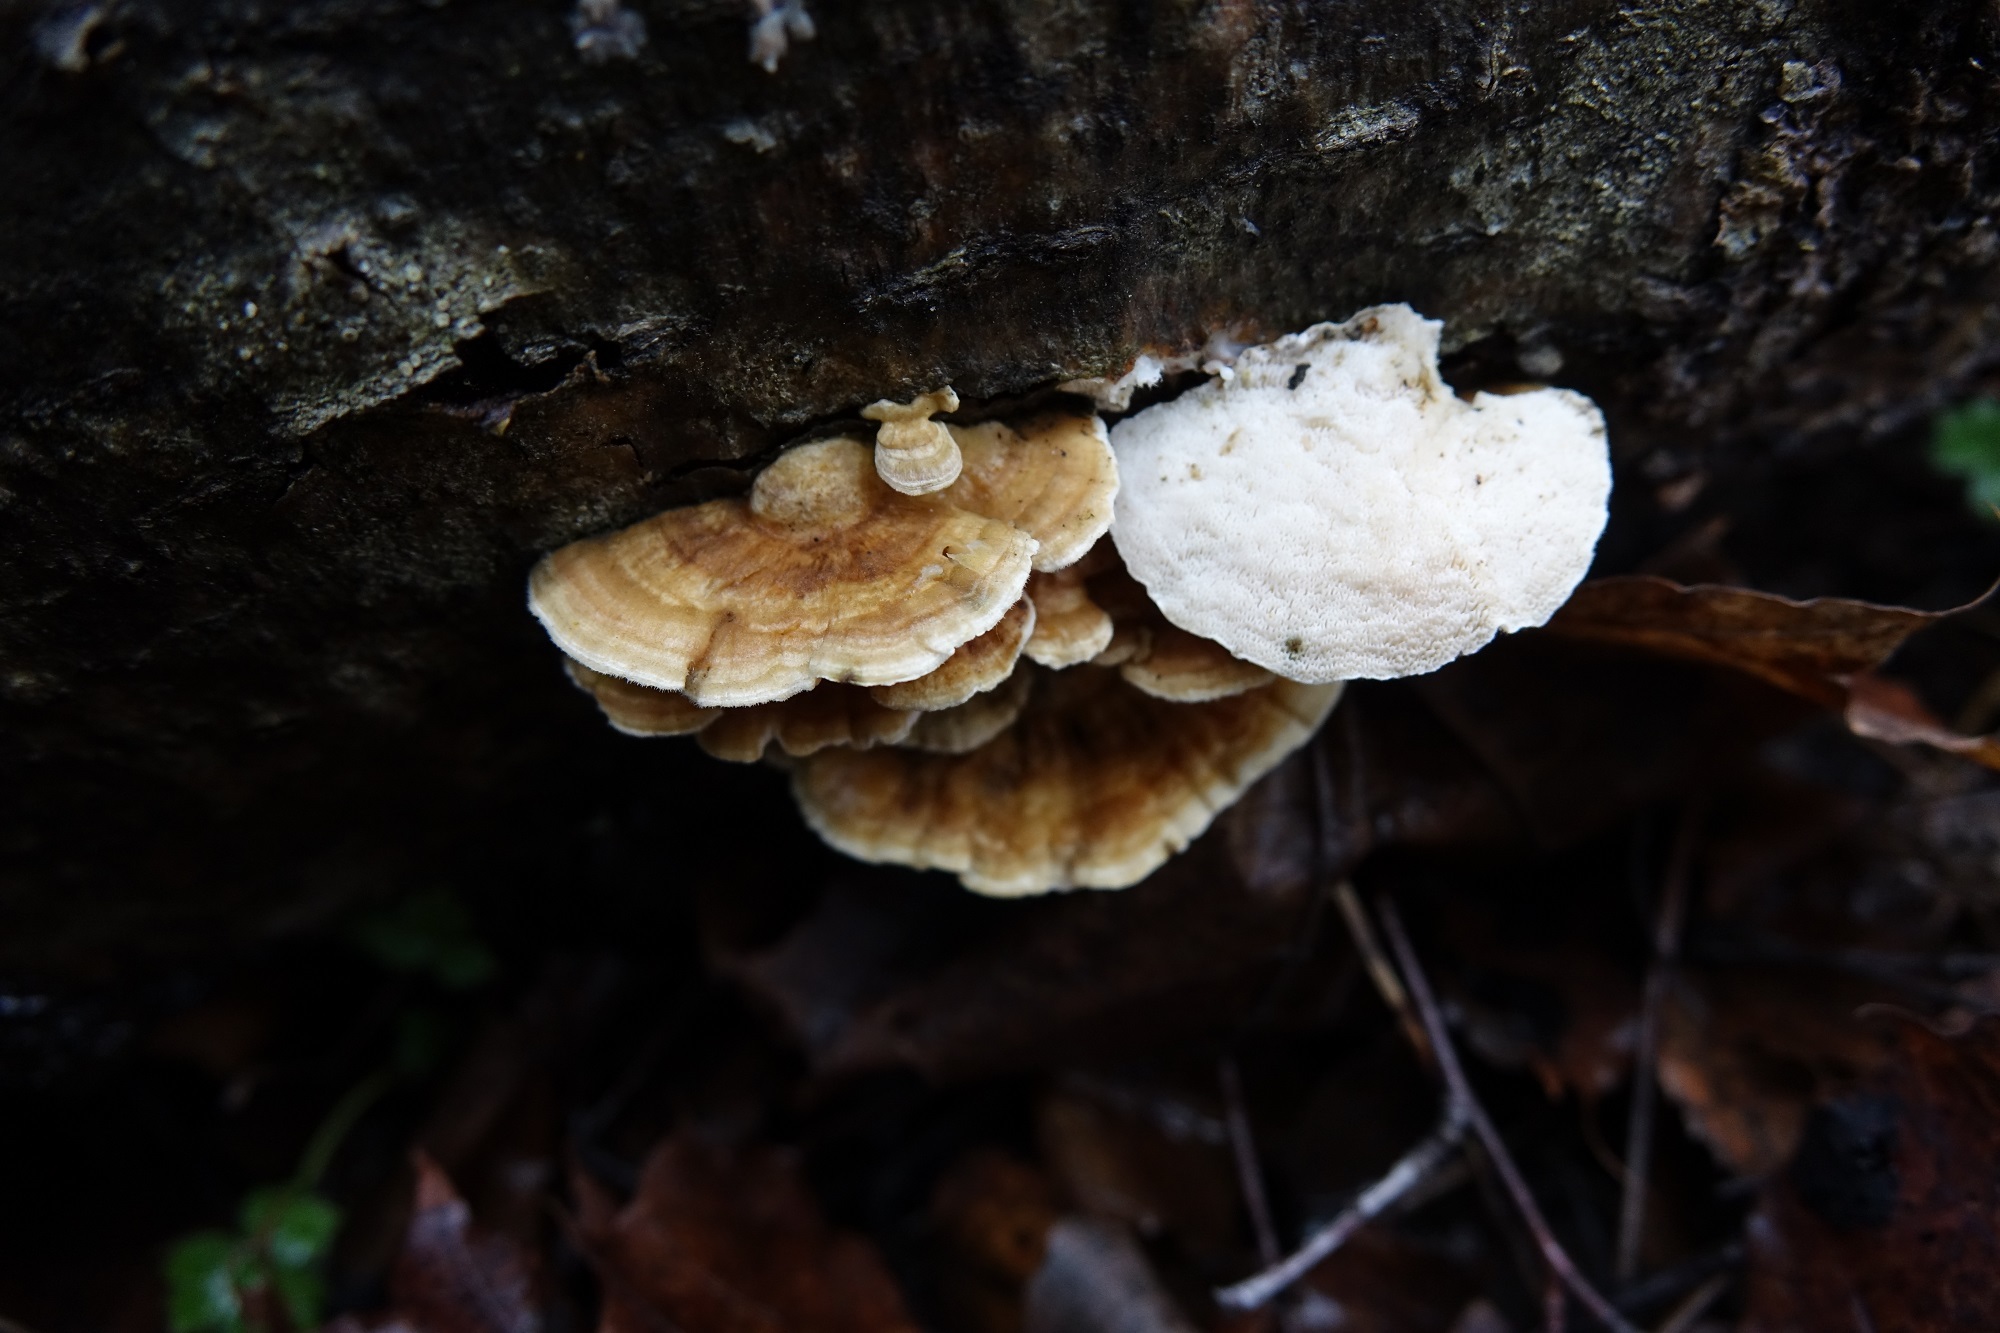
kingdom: Fungi
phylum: Basidiomycota
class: Agaricomycetes
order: Polyporales
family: Polyporaceae
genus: Trametes
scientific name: Trametes ochracea
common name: Ochre bracket
